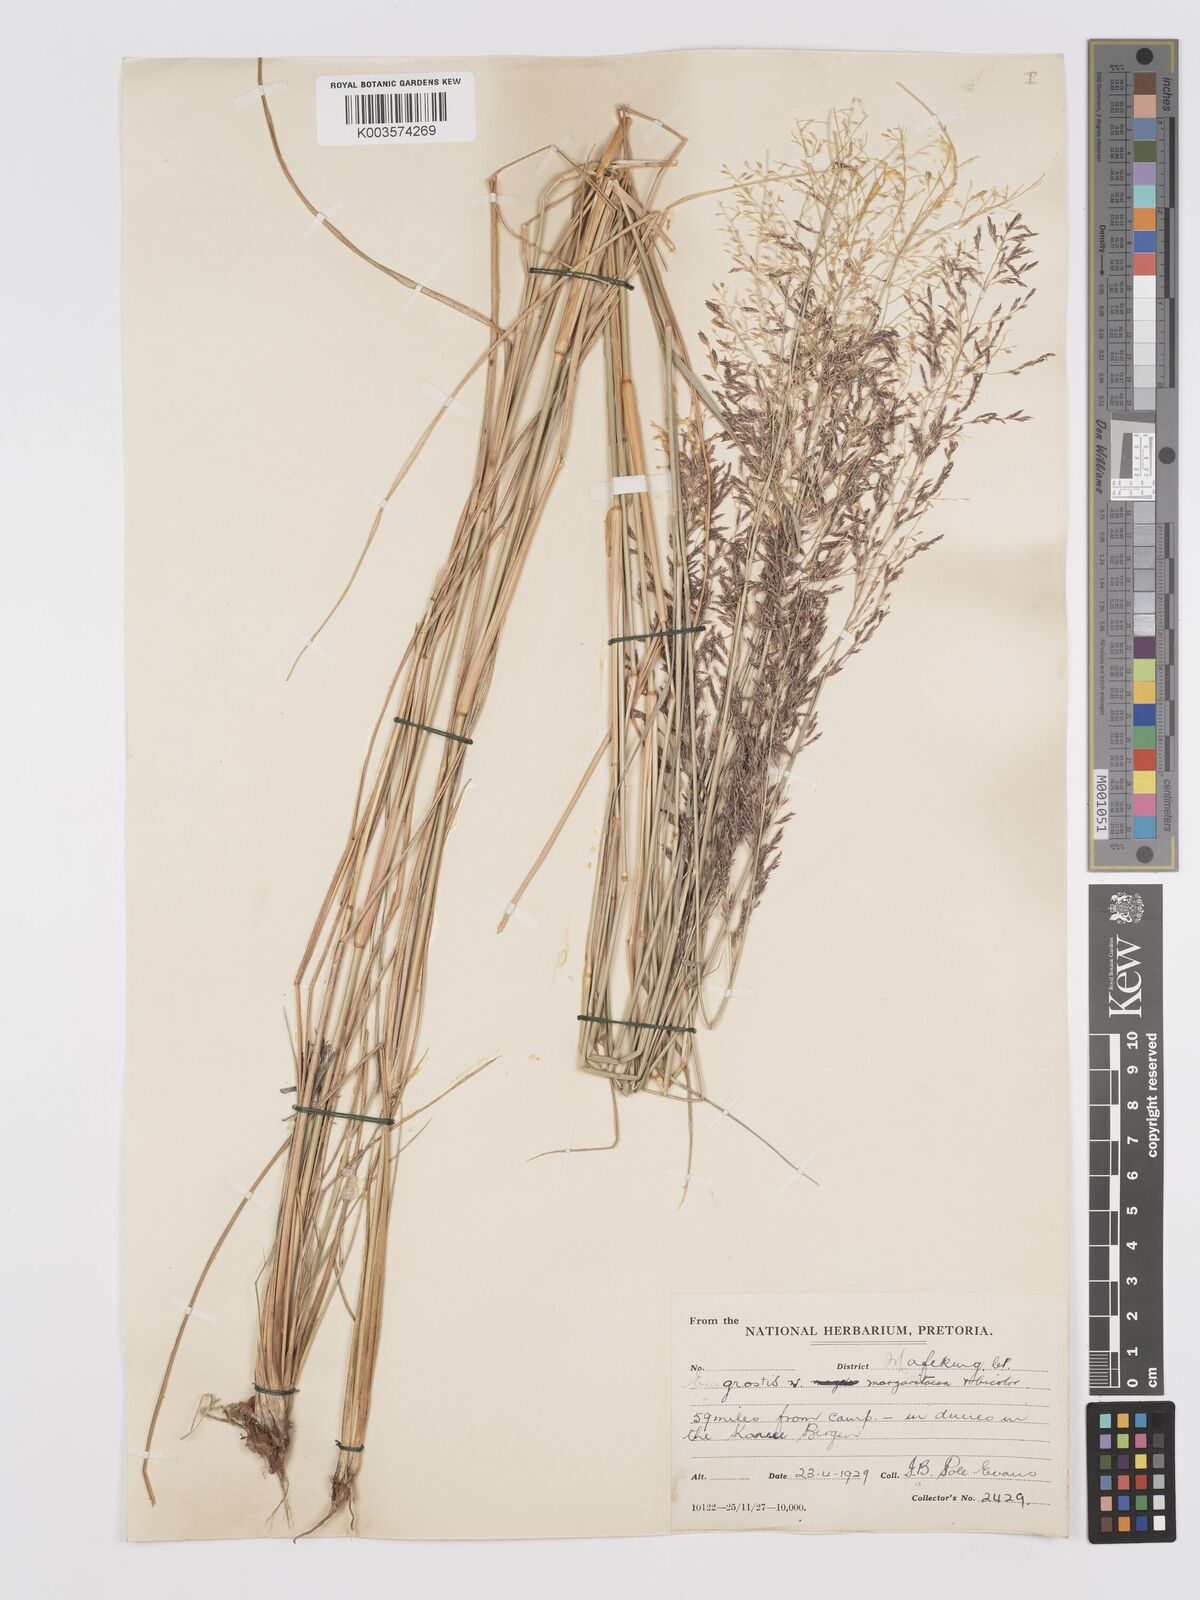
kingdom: Plantae
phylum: Tracheophyta
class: Liliopsida
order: Poales
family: Poaceae
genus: Eragrostis
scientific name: Eragrostis micrantha
